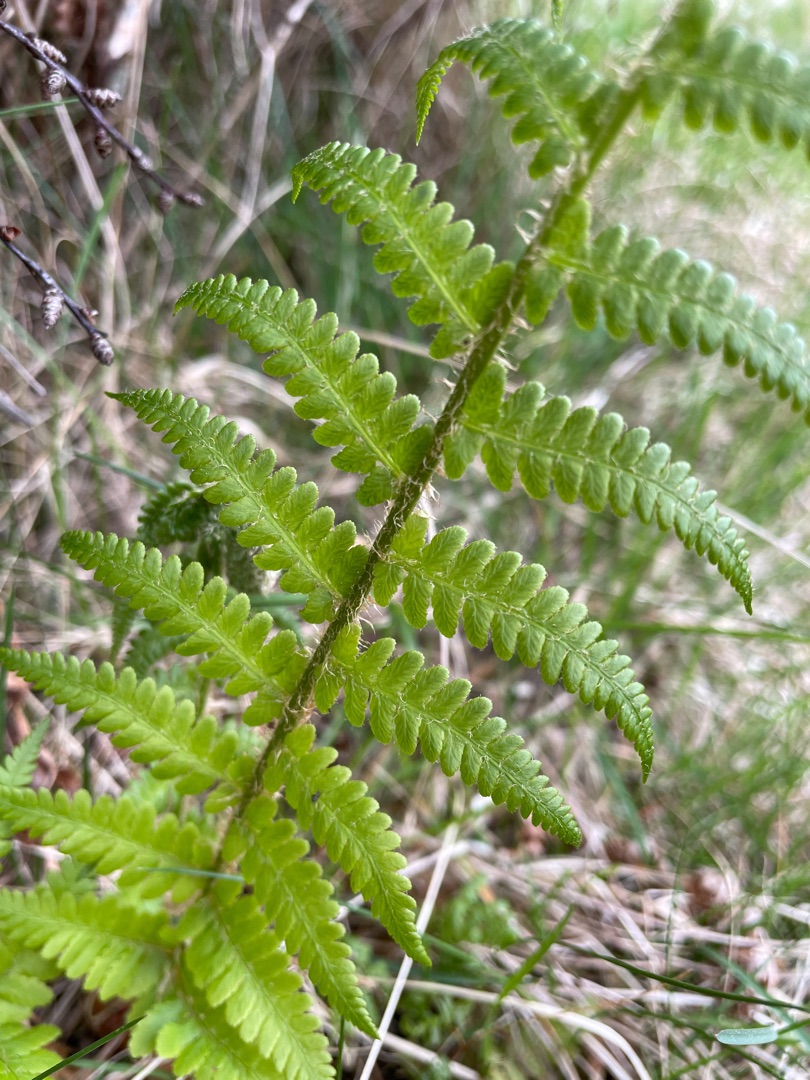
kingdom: Plantae
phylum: Tracheophyta
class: Polypodiopsida
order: Polypodiales
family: Dryopteridaceae
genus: Dryopteris
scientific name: Dryopteris filix-mas
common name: Almindelig mangeløv
